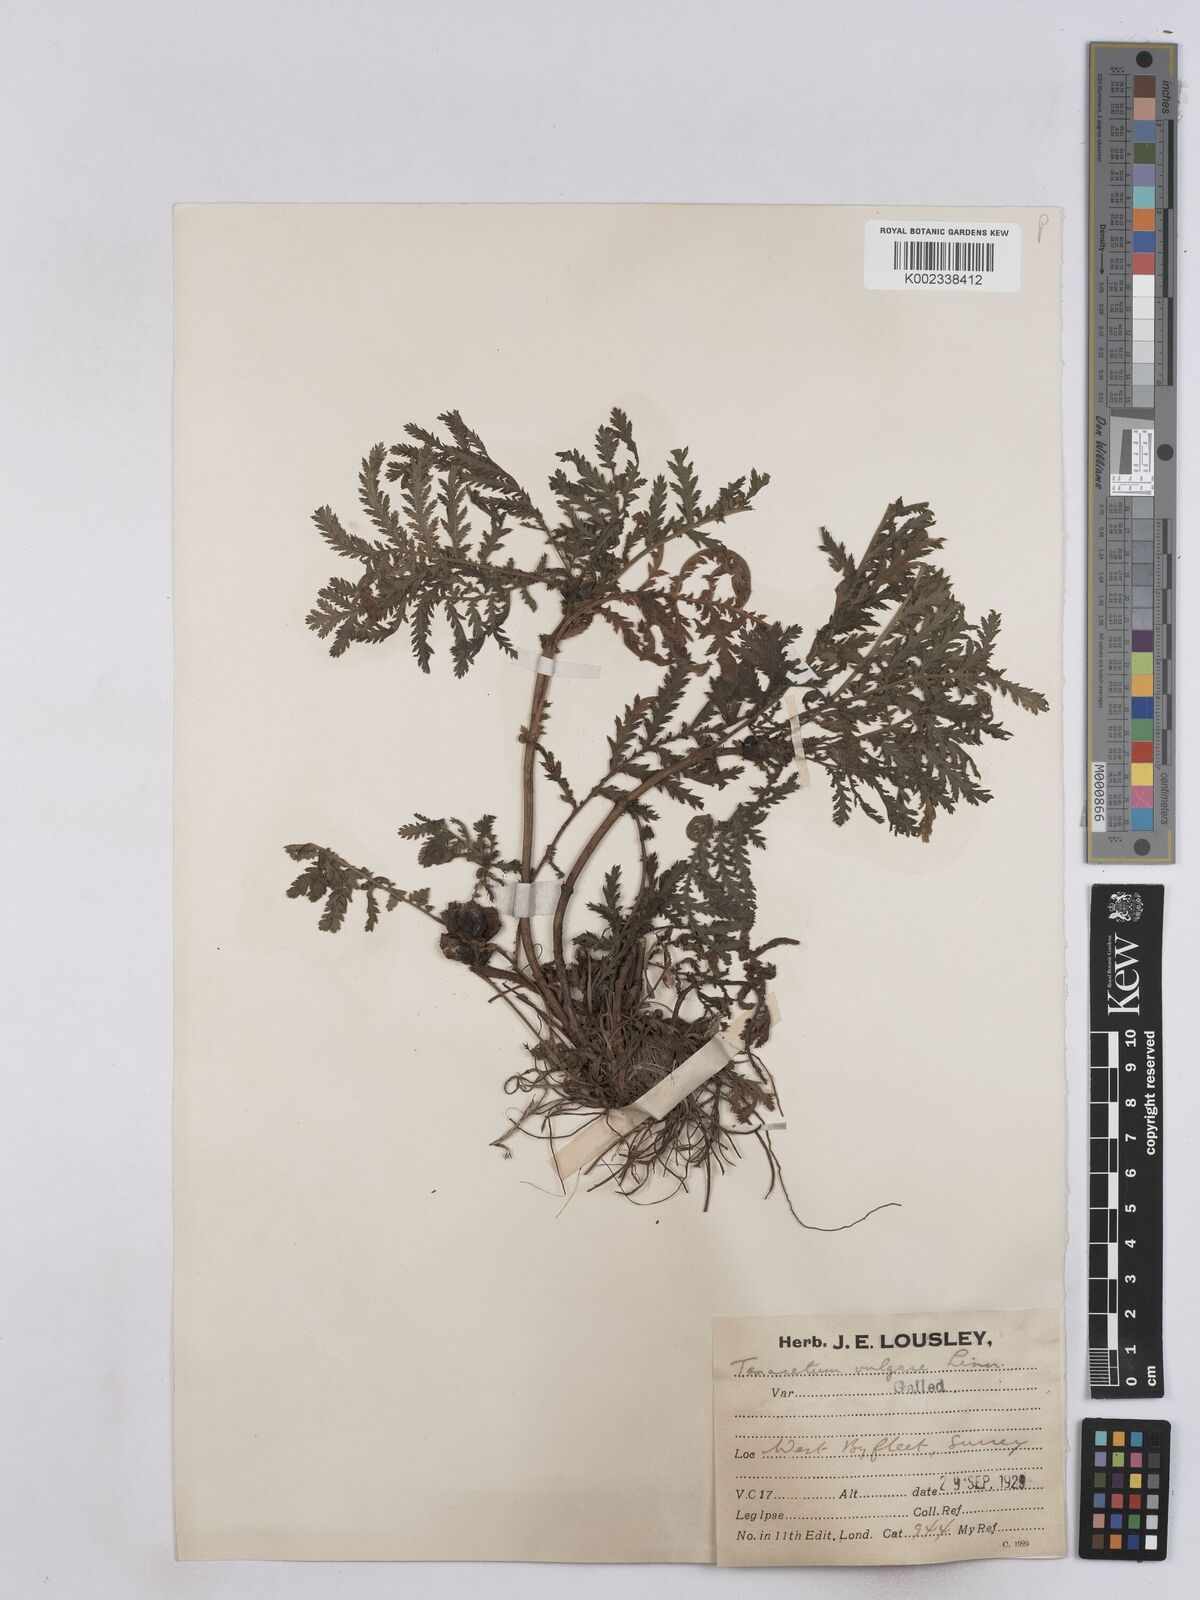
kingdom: Plantae
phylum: Tracheophyta
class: Magnoliopsida
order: Asterales
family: Asteraceae
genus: Tanacetum
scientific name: Tanacetum vulgare
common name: Common tansy
